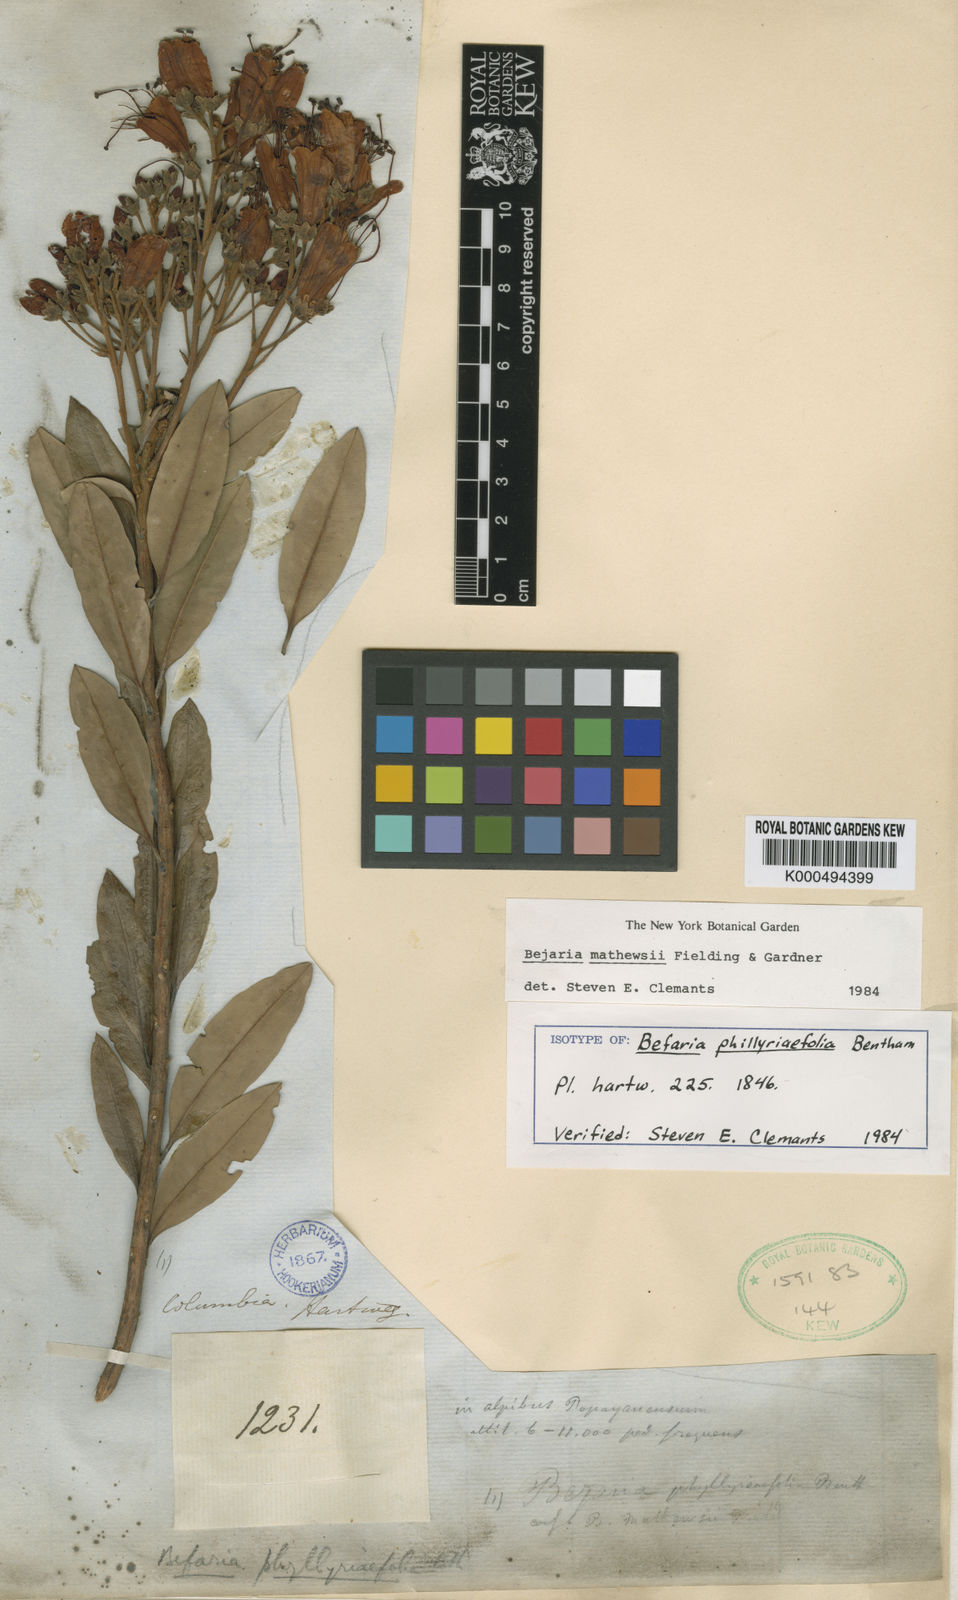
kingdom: Plantae
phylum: Tracheophyta
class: Magnoliopsida
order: Ericales
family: Ericaceae
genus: Bejaria
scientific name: Bejaria mathewsii
